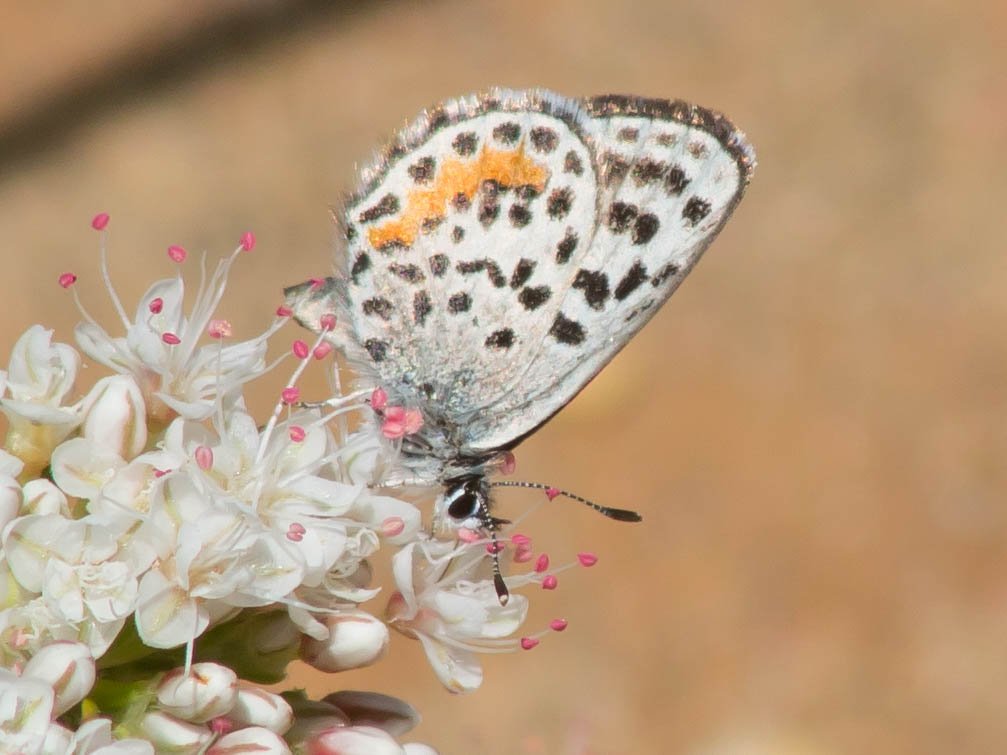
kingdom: Animalia
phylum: Arthropoda
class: Insecta
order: Lepidoptera
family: Lycaenidae
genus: Philotes
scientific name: Philotes bernardino
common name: Bernardino Blue
